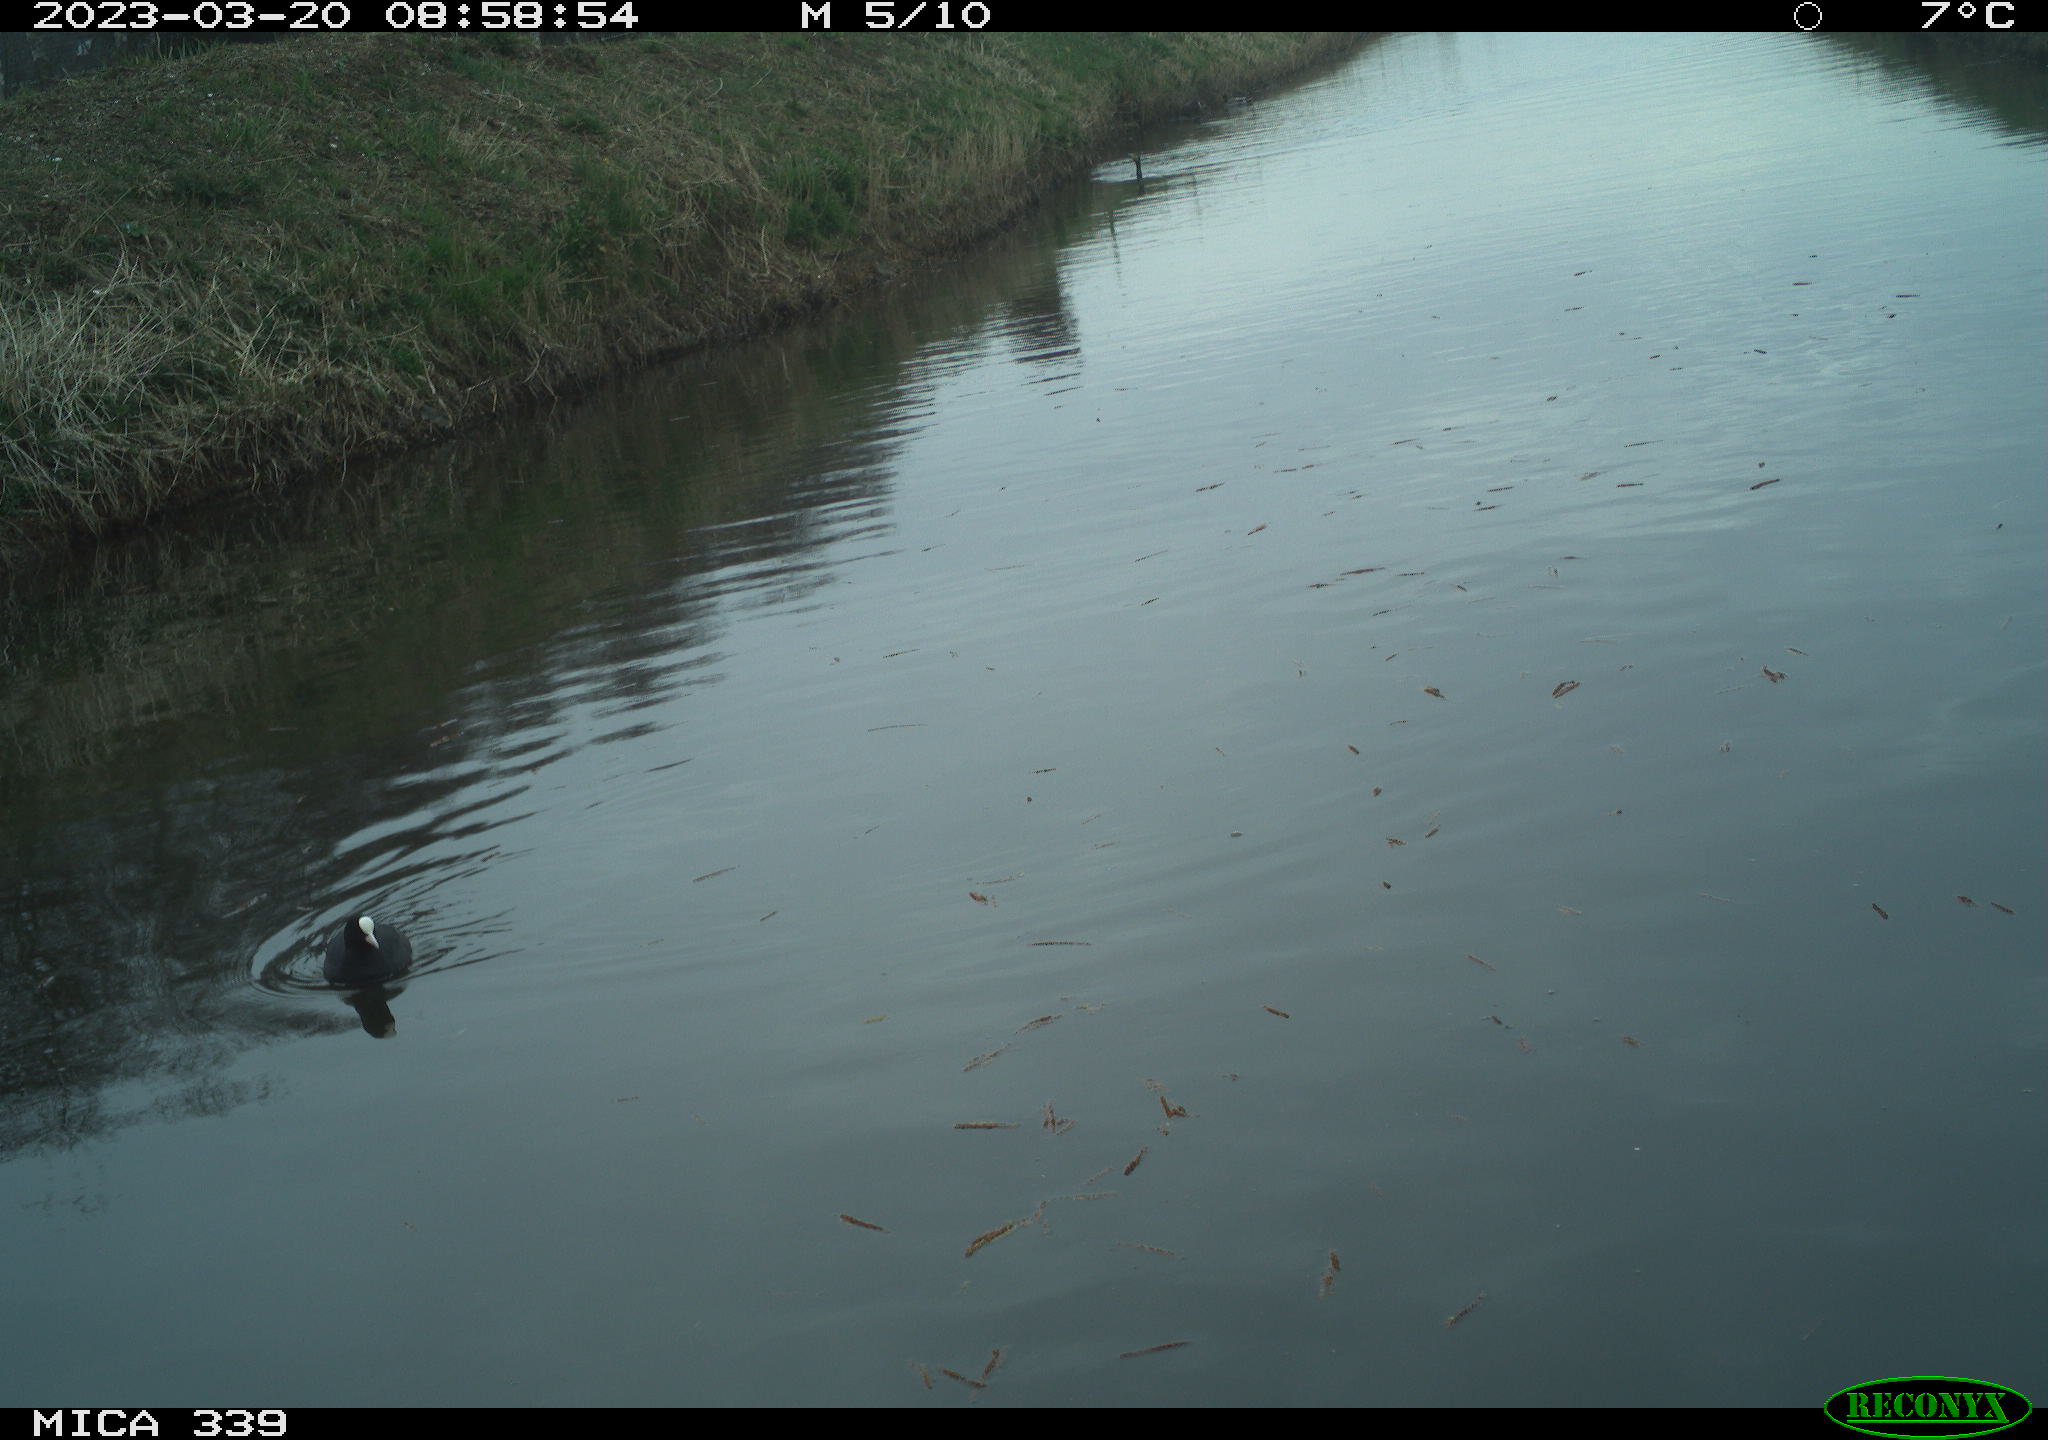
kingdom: Animalia
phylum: Chordata
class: Aves
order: Gruiformes
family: Rallidae
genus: Fulica
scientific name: Fulica atra
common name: Eurasian coot
